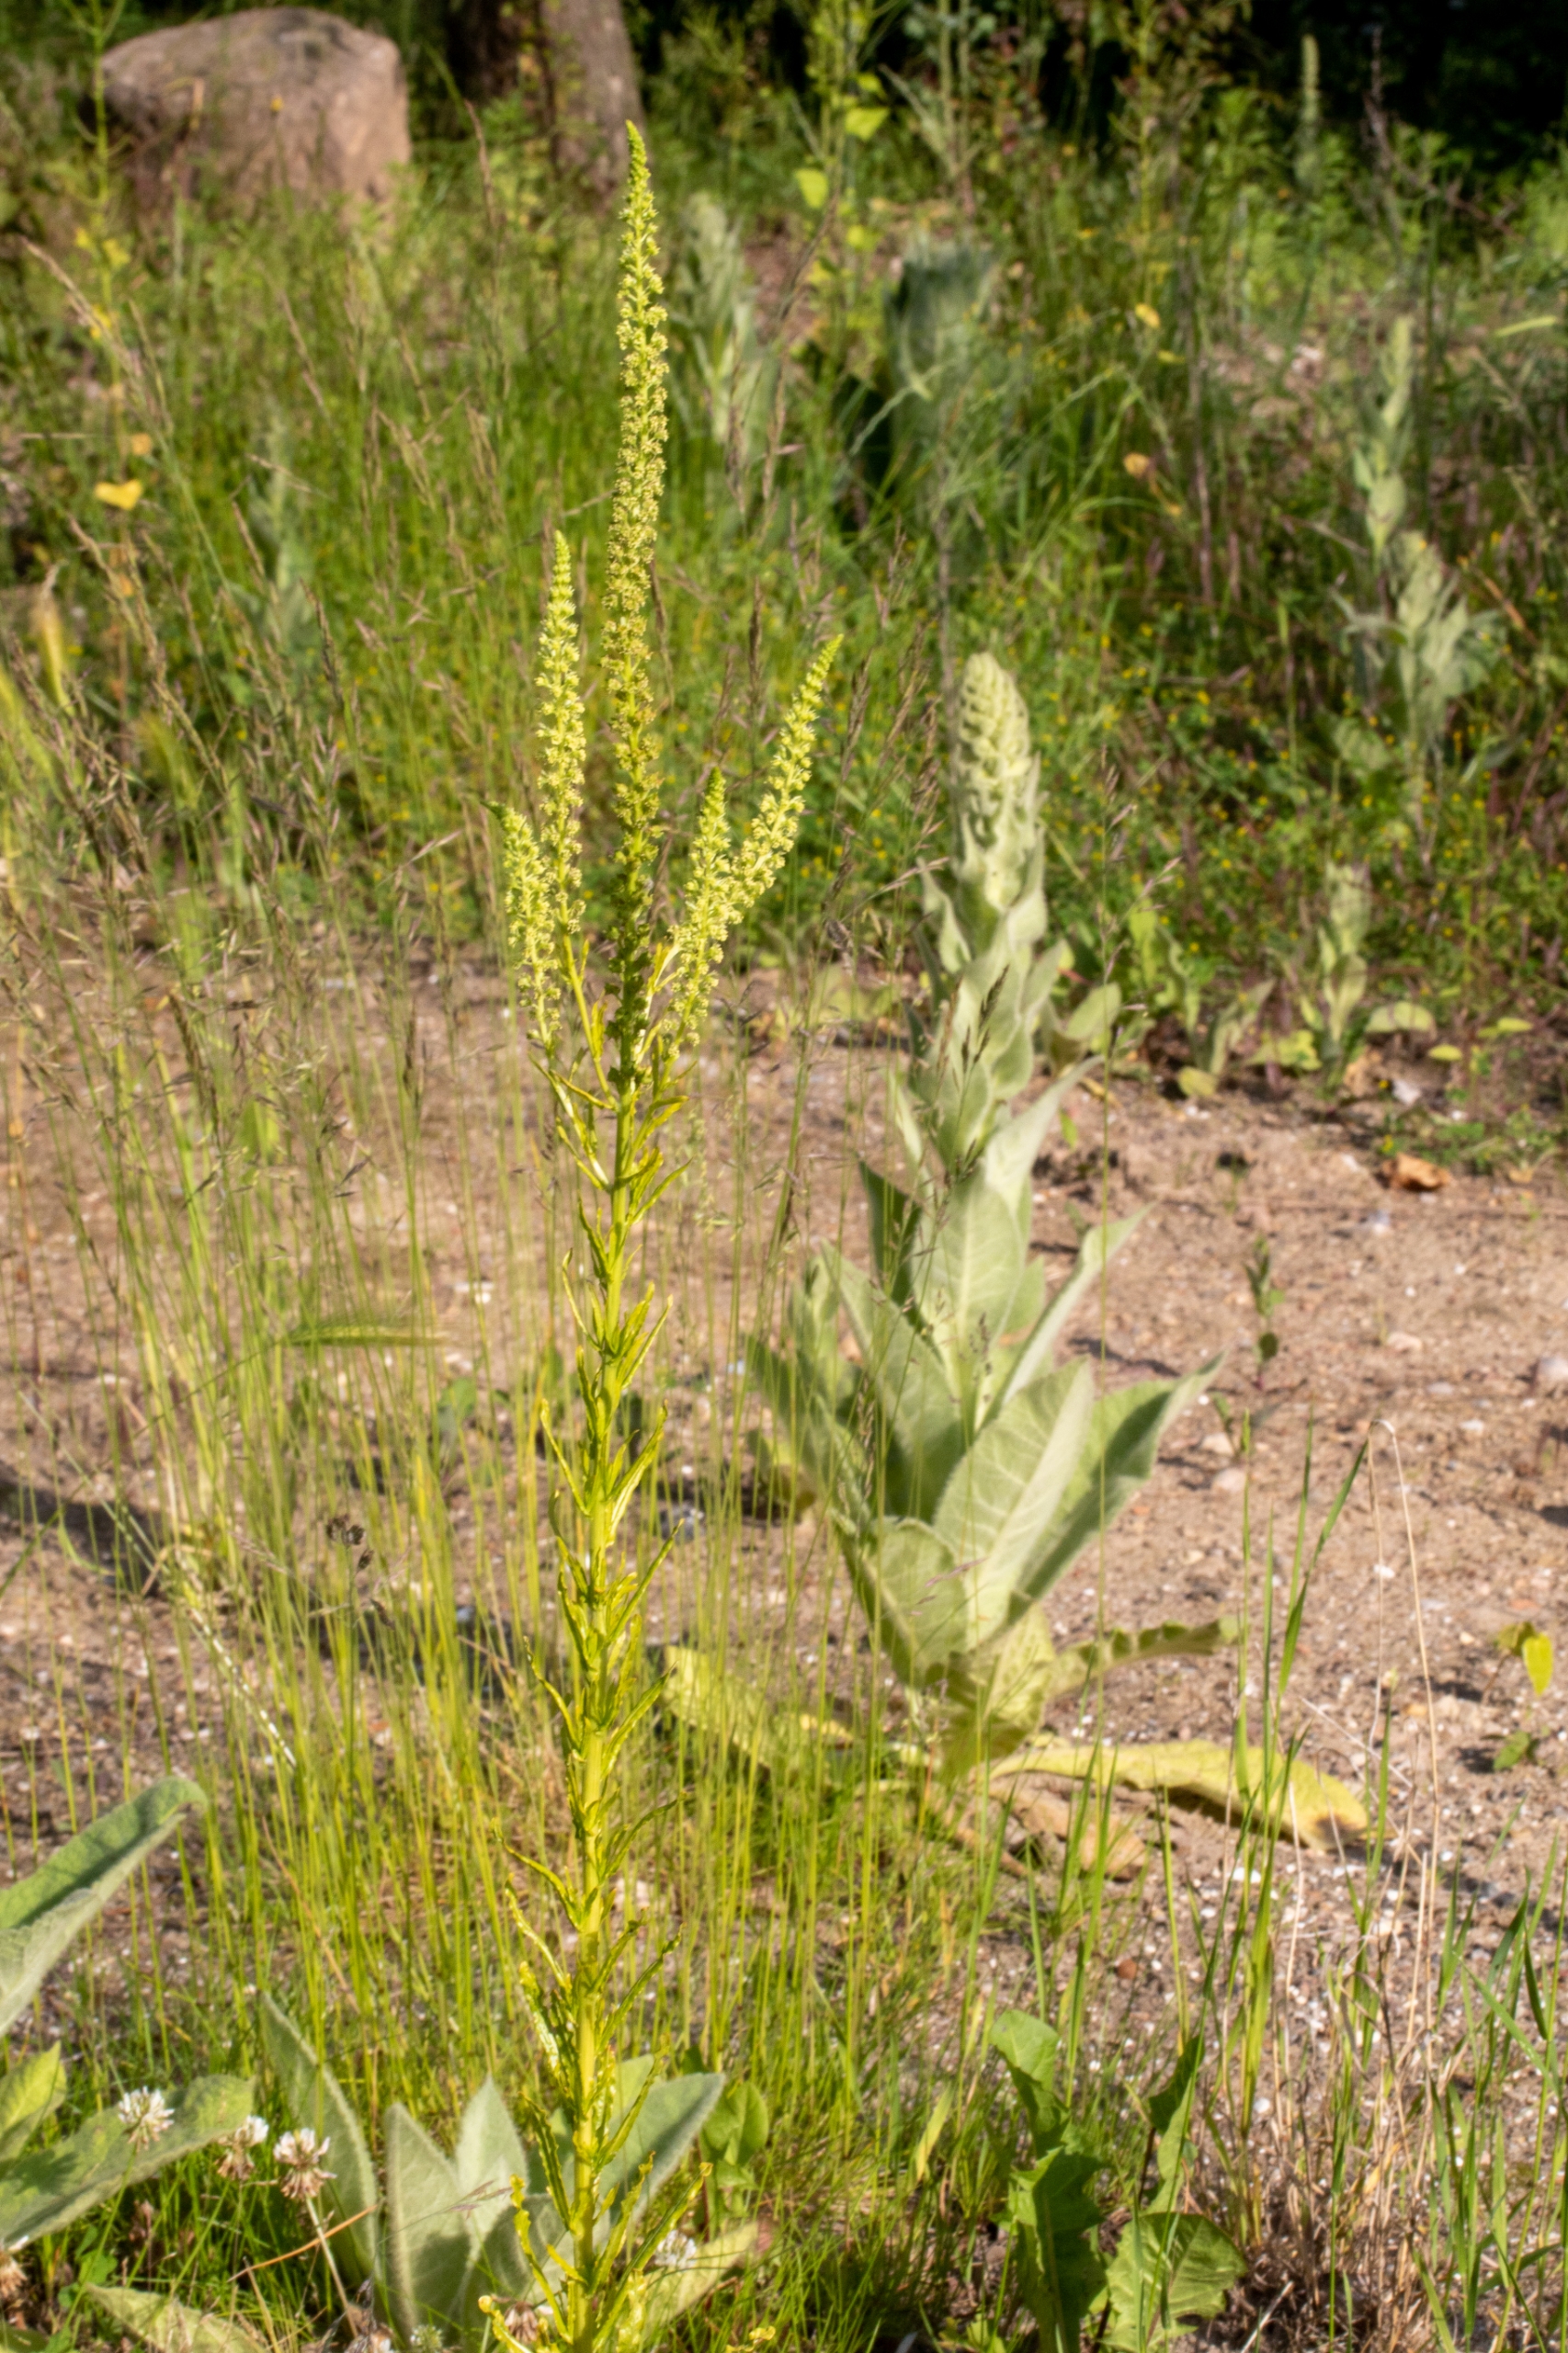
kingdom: Plantae
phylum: Tracheophyta
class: Magnoliopsida
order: Brassicales
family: Resedaceae
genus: Reseda
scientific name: Reseda luteola
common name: Farve-reseda
